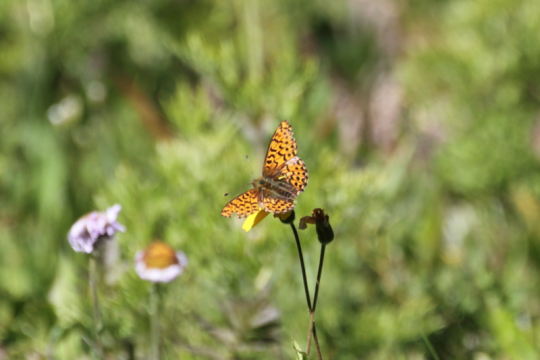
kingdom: Animalia
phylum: Arthropoda
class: Insecta
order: Lepidoptera
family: Nymphalidae
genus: Boloria
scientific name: Boloria chariclea
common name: Arctic Fritillary
